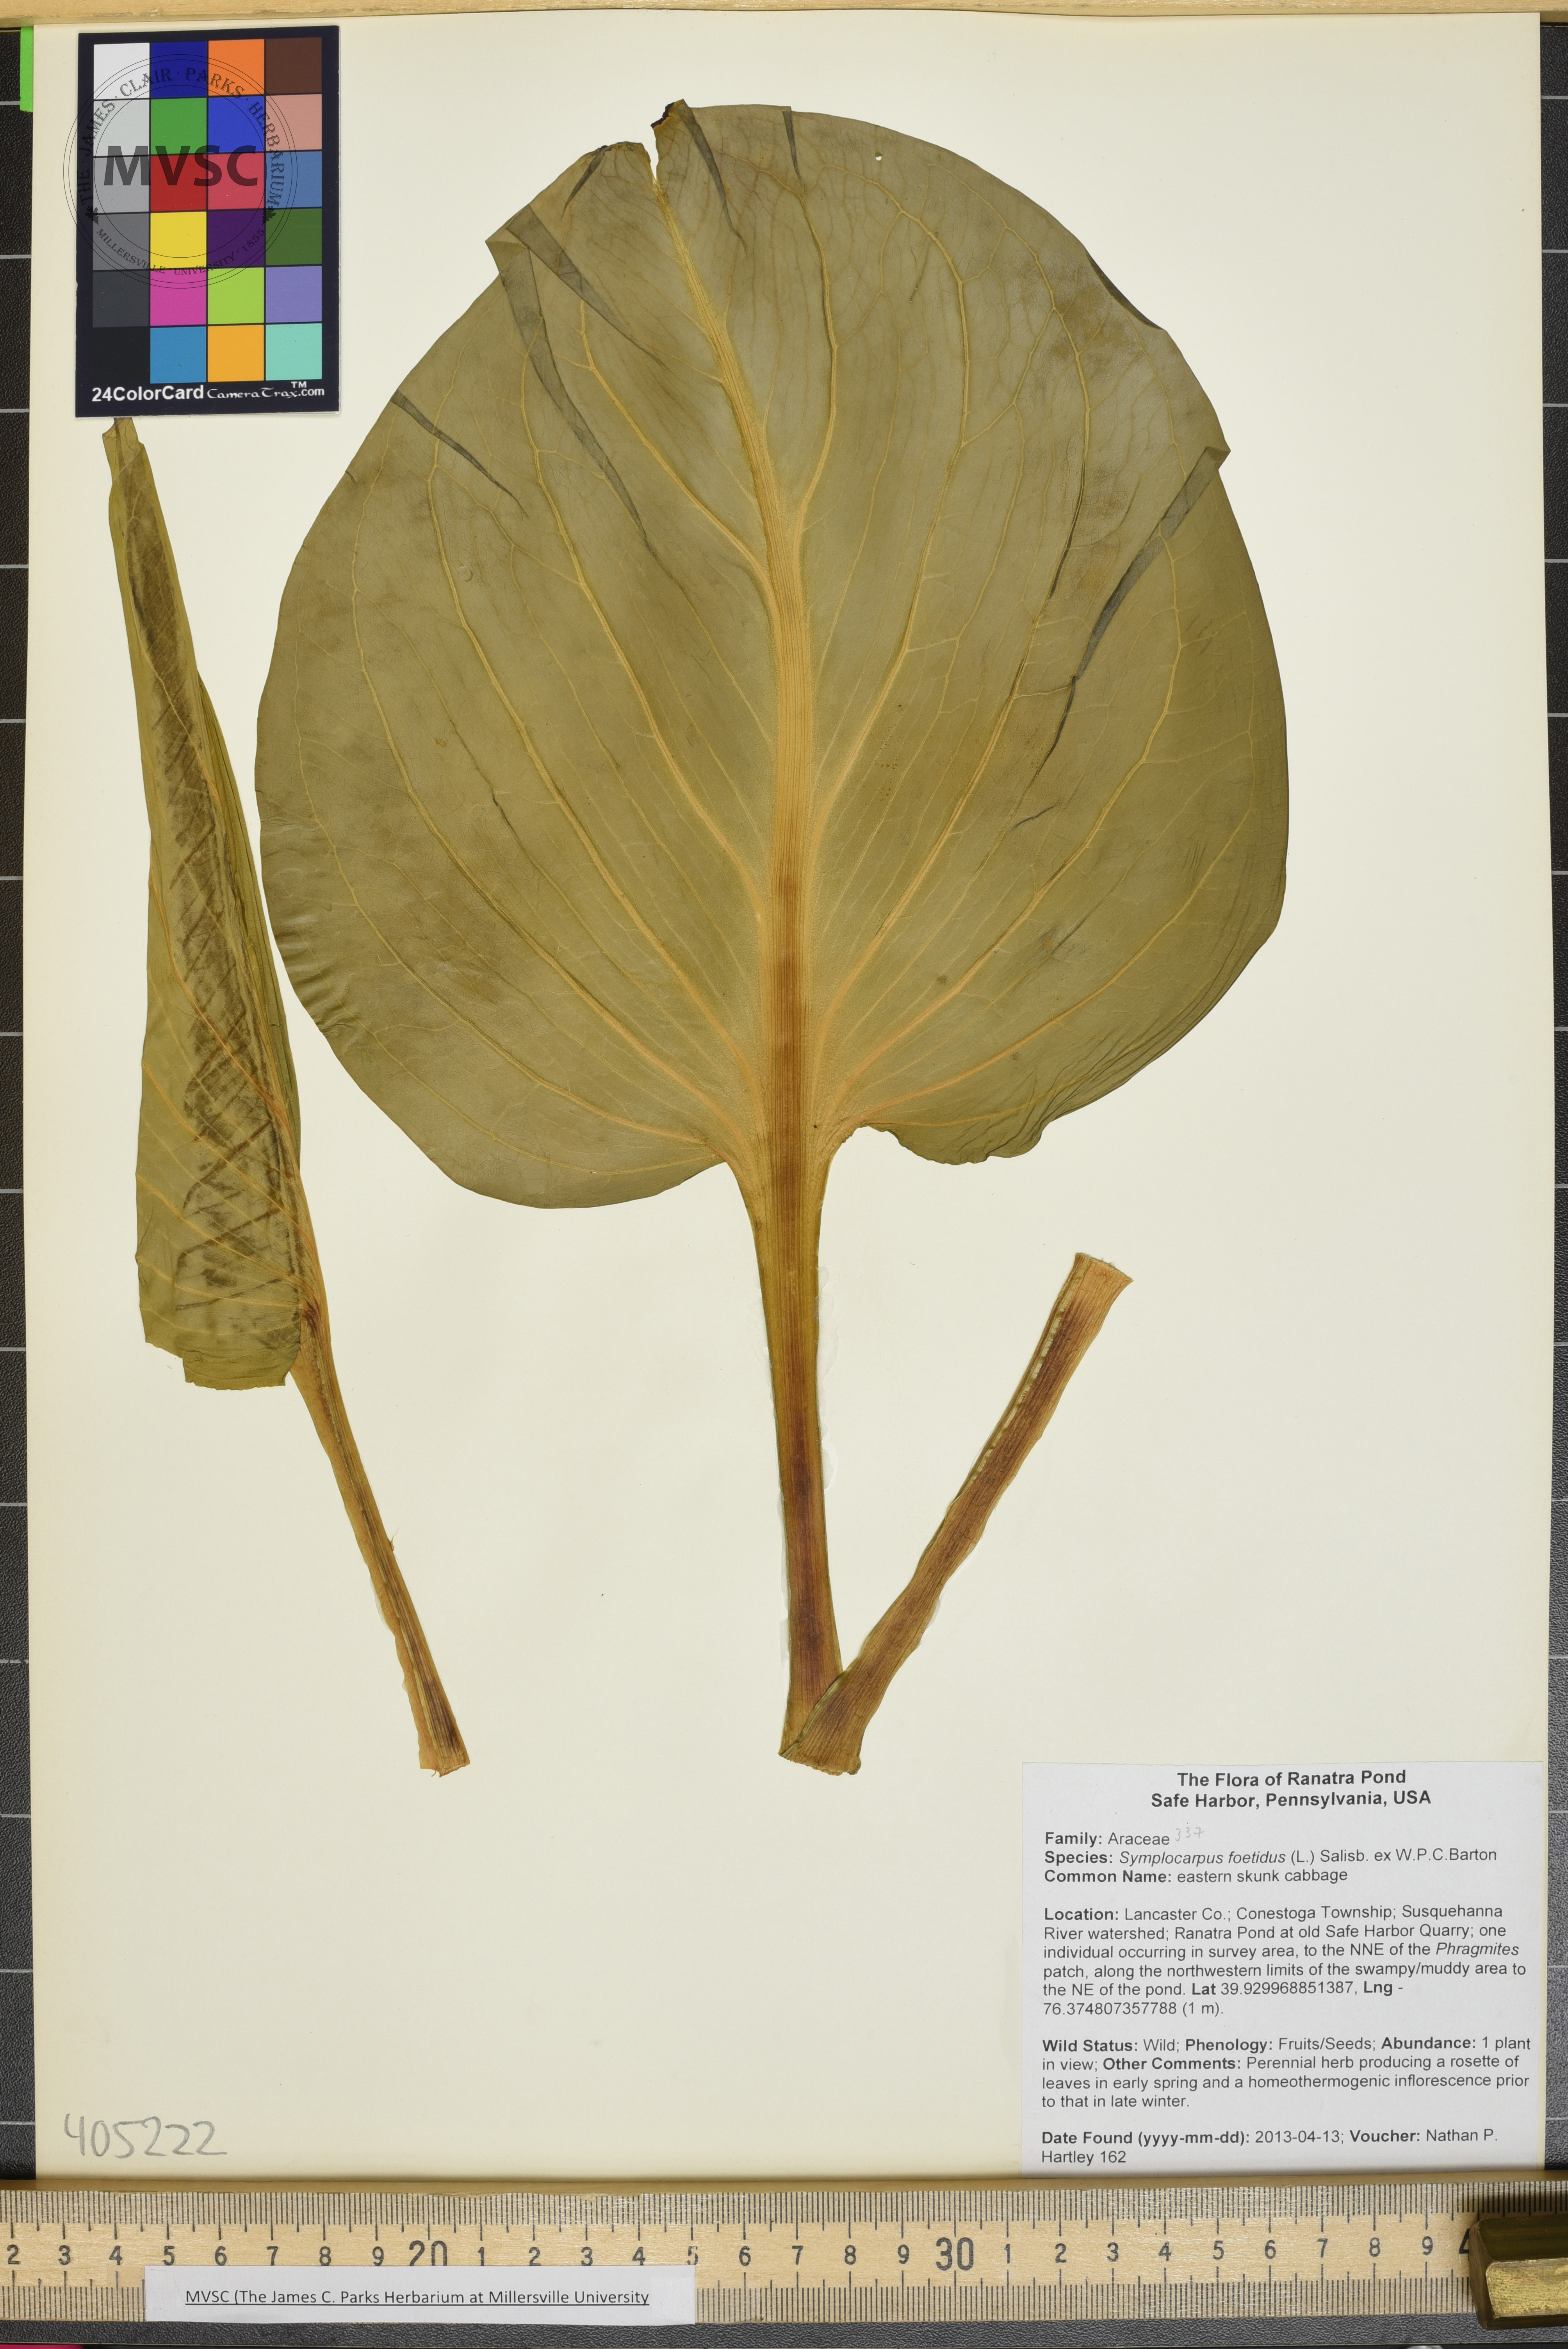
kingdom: Plantae
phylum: Tracheophyta
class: Liliopsida
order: Alismatales
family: Araceae
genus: Symplocarpus
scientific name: Symplocarpus foetidus
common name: eastern skunk cabbage
